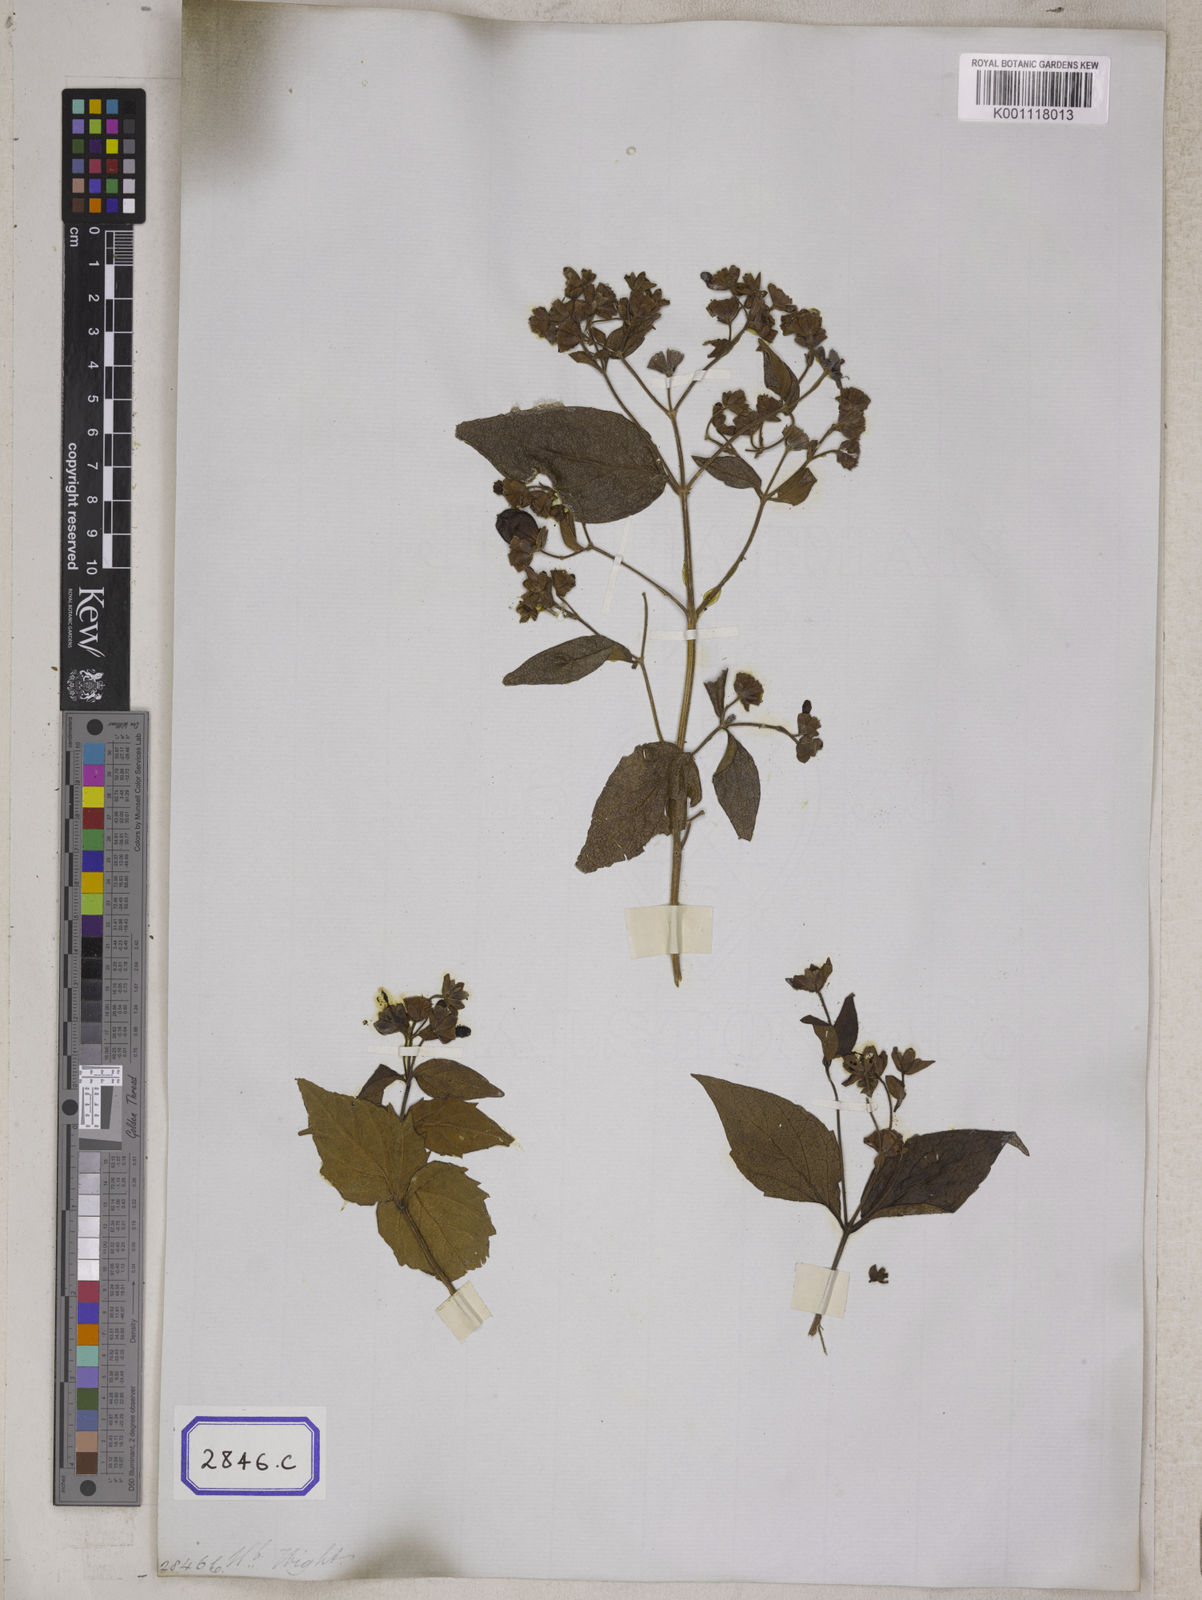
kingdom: Plantae
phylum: Tracheophyta
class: Magnoliopsida
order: Lamiales
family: Oleaceae
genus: Nyctanthes
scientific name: Nyctanthes arbor-tristis
